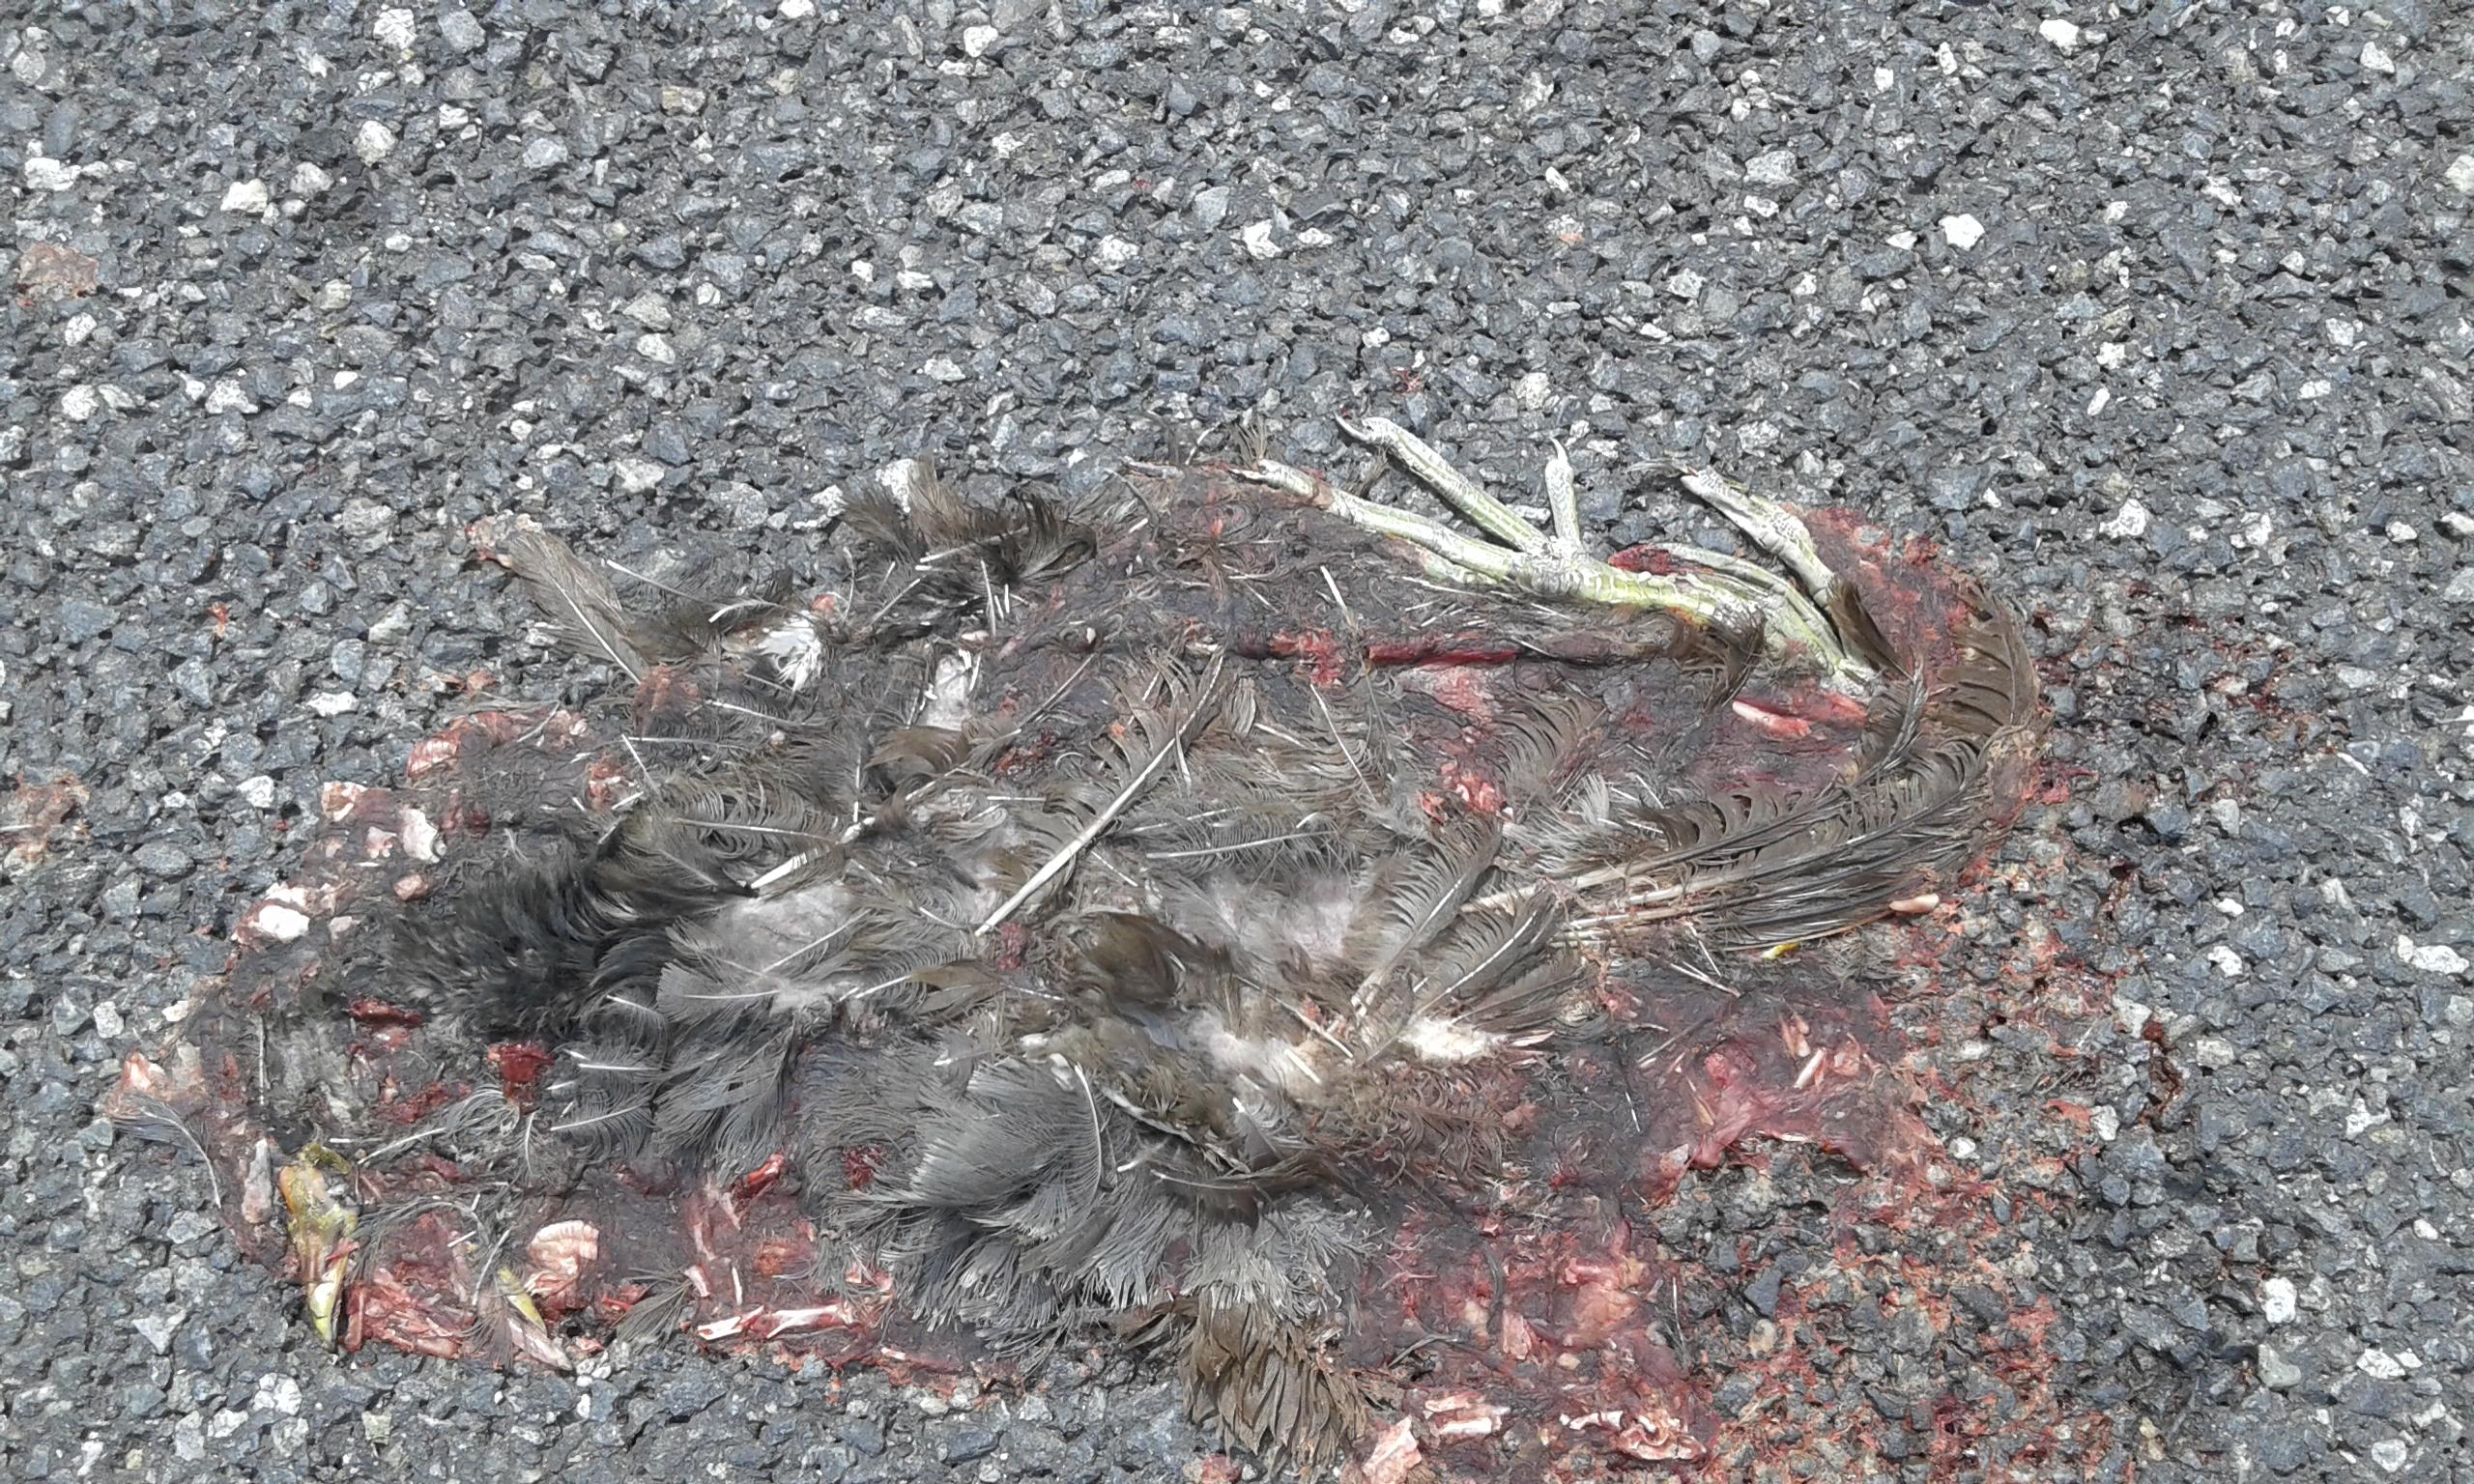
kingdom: Animalia
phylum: Chordata
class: Aves
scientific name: Aves
